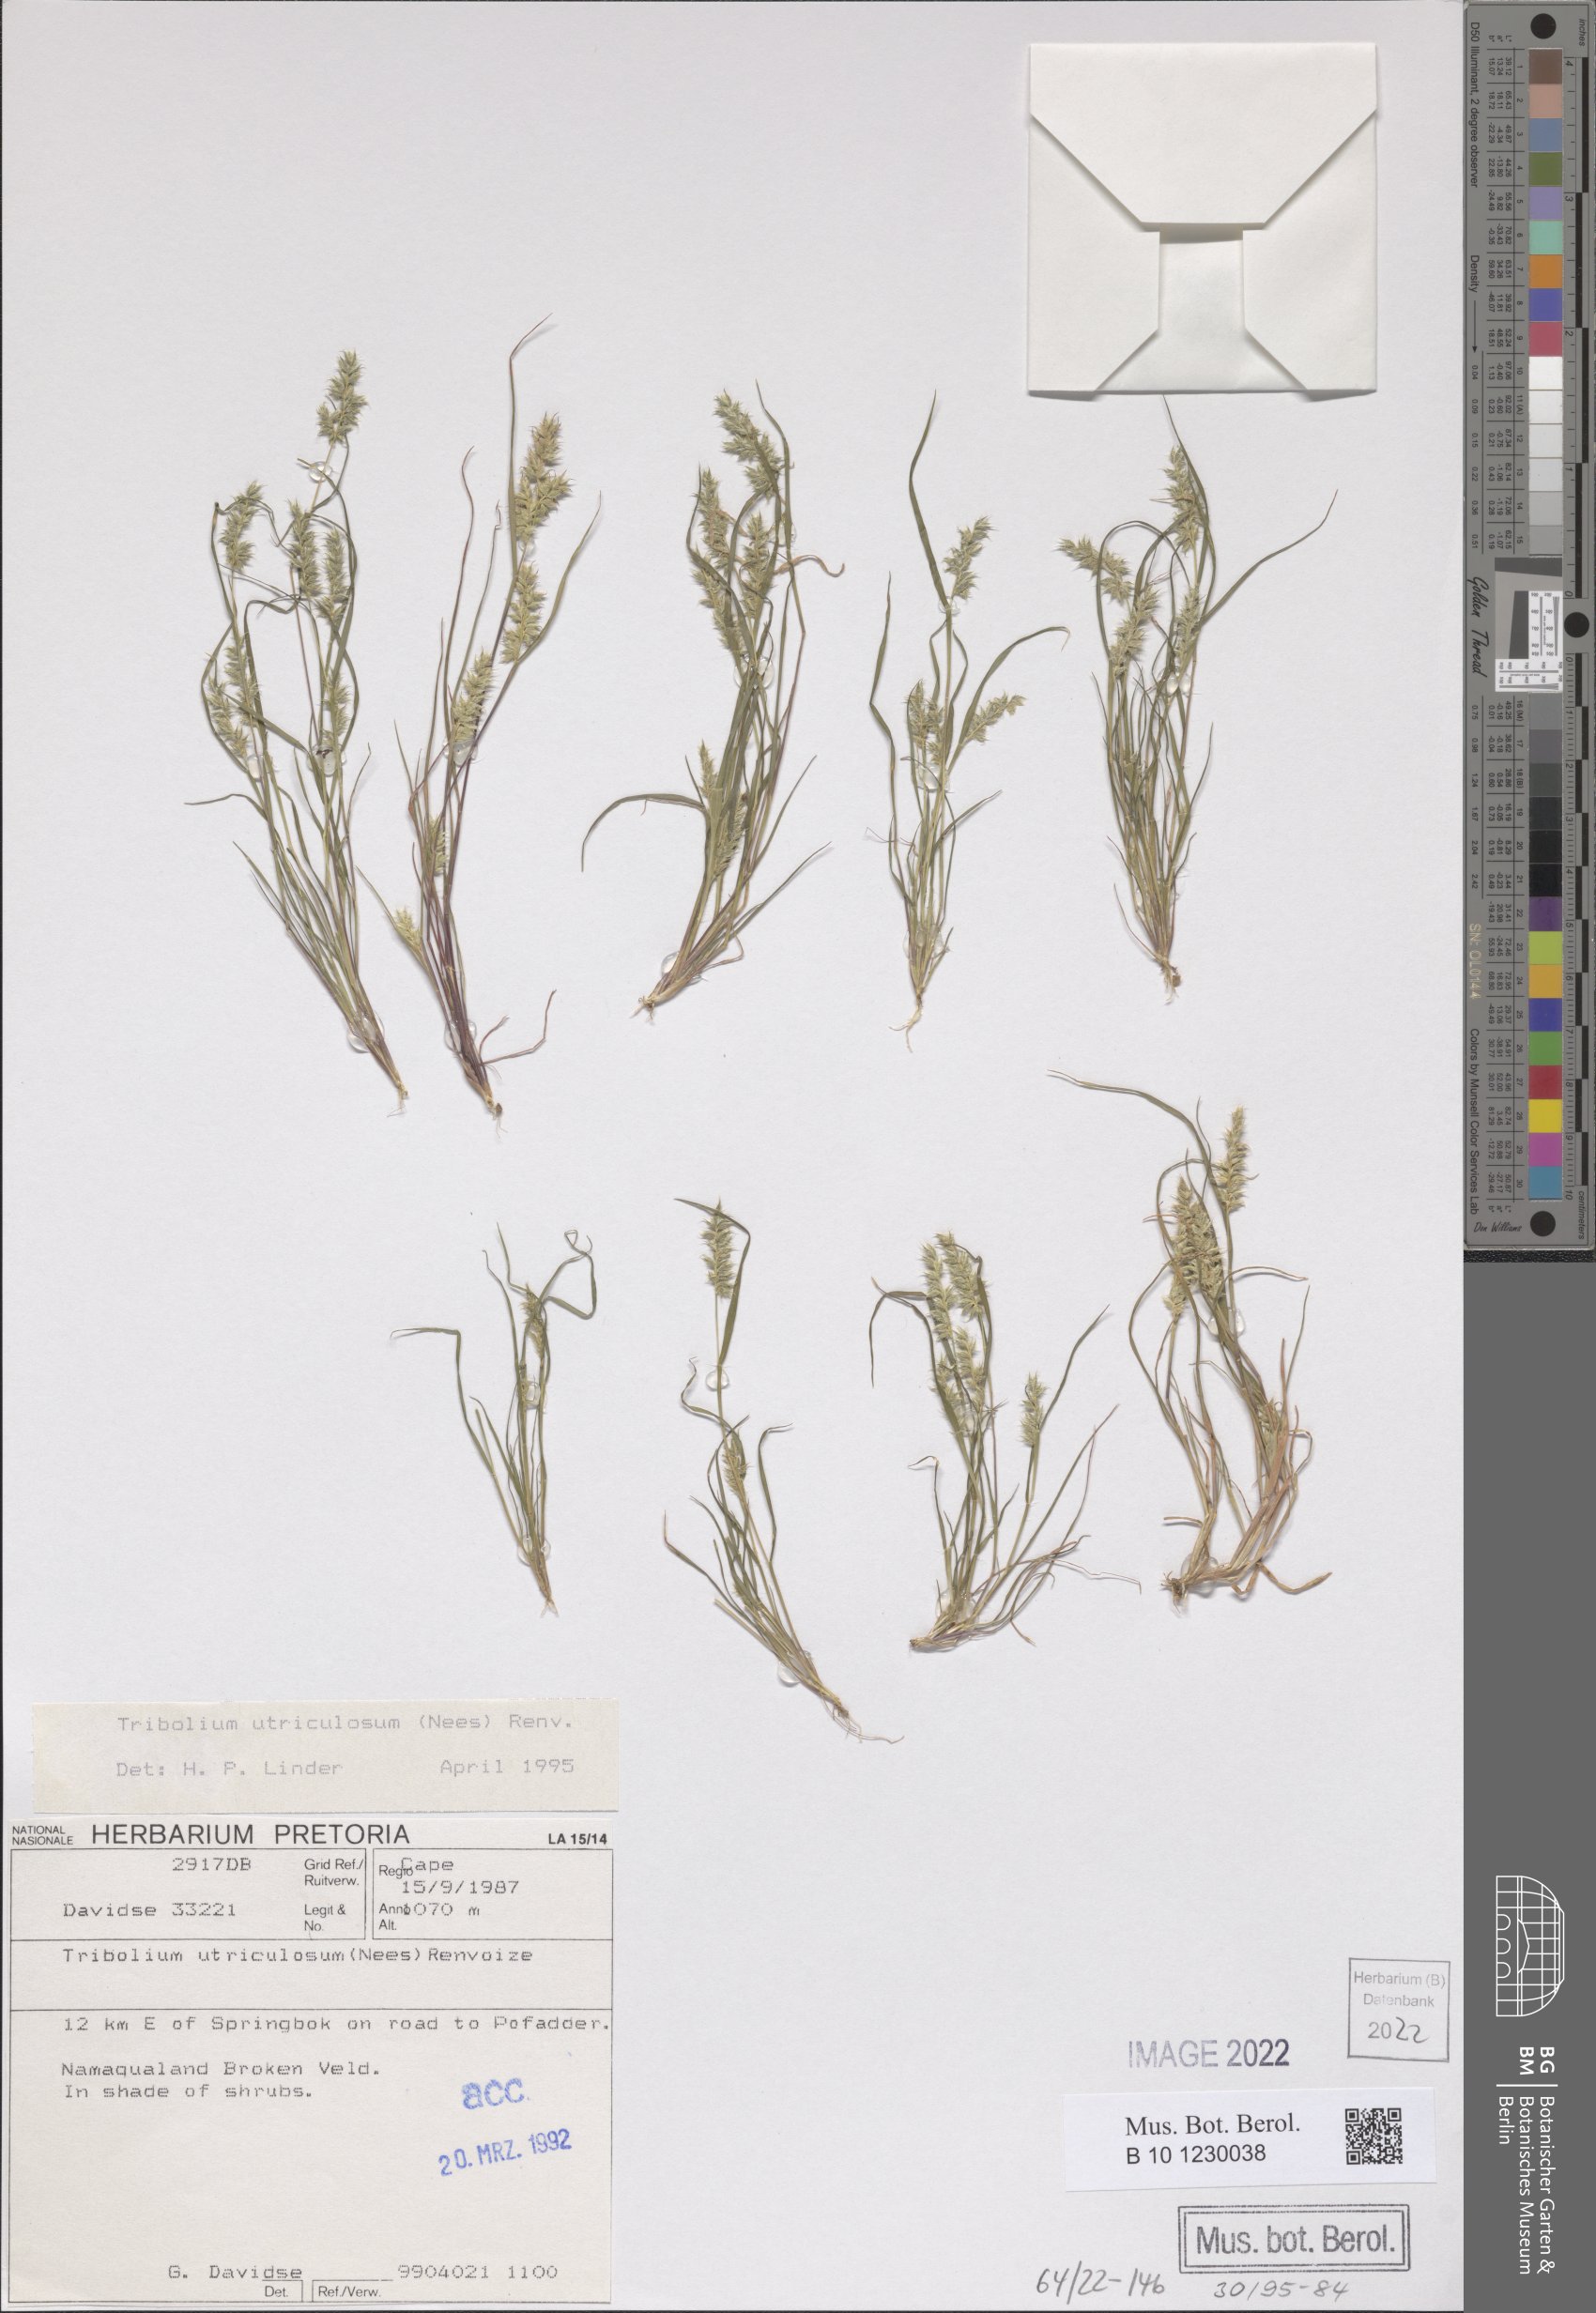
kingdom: Plantae
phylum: Tracheophyta
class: Liliopsida
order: Poales
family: Poaceae
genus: Tribolium
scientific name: Tribolium utriculosum
